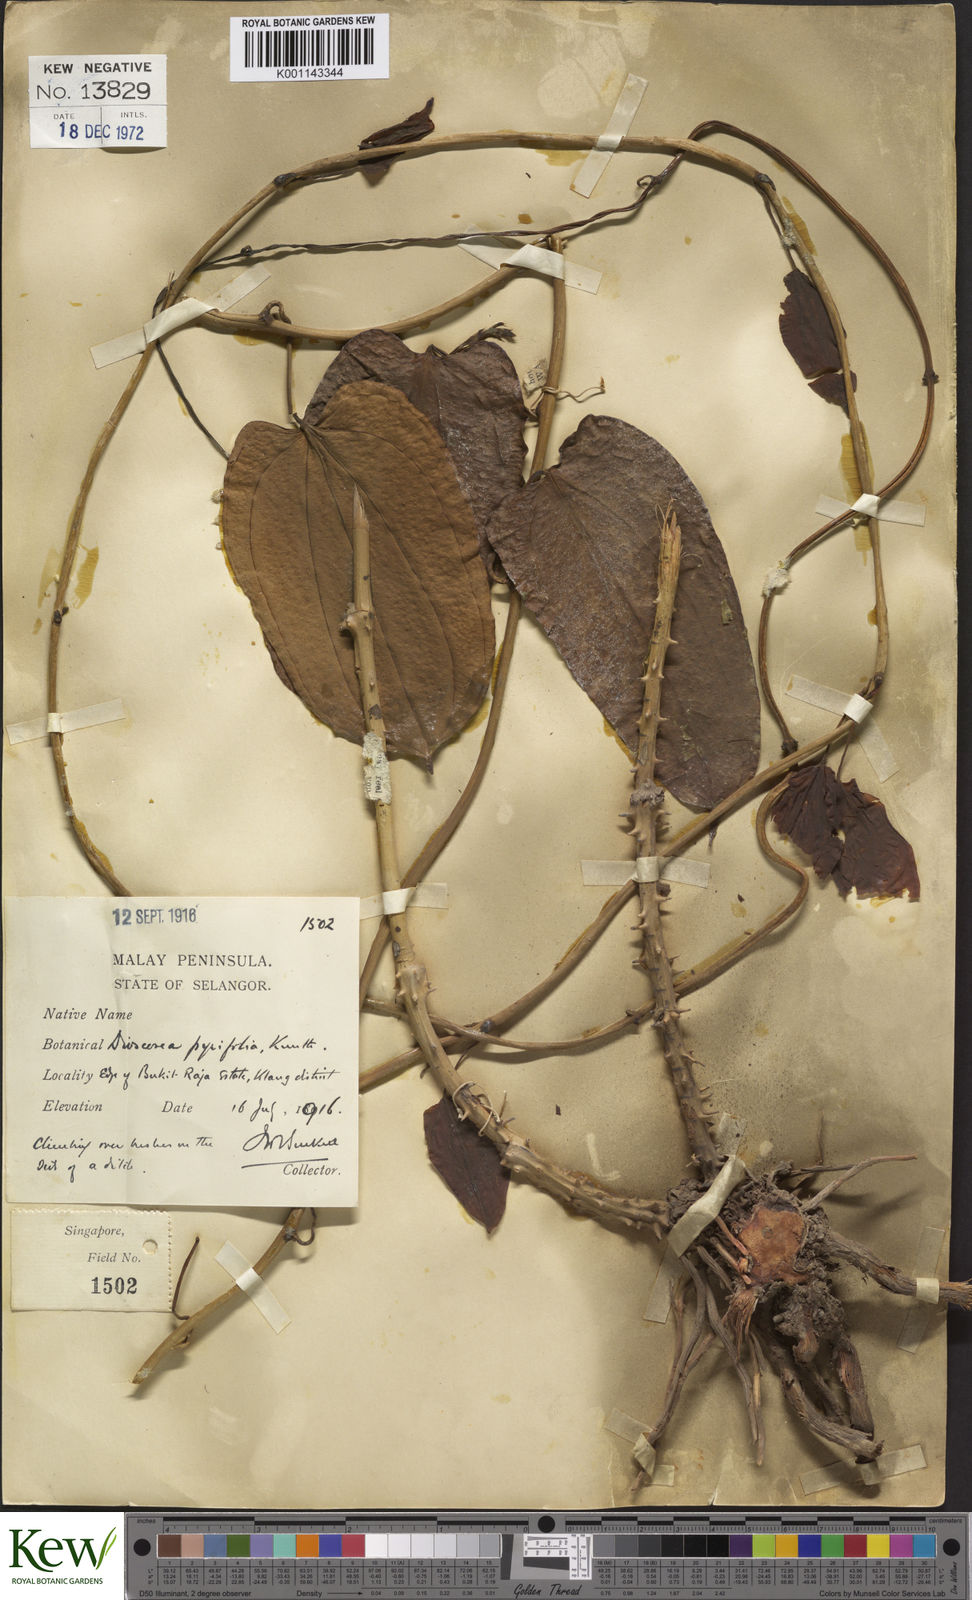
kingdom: Plantae
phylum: Tracheophyta
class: Liliopsida
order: Dioscoreales
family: Dioscoreaceae
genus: Dioscorea
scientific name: Dioscorea pyrifolia
